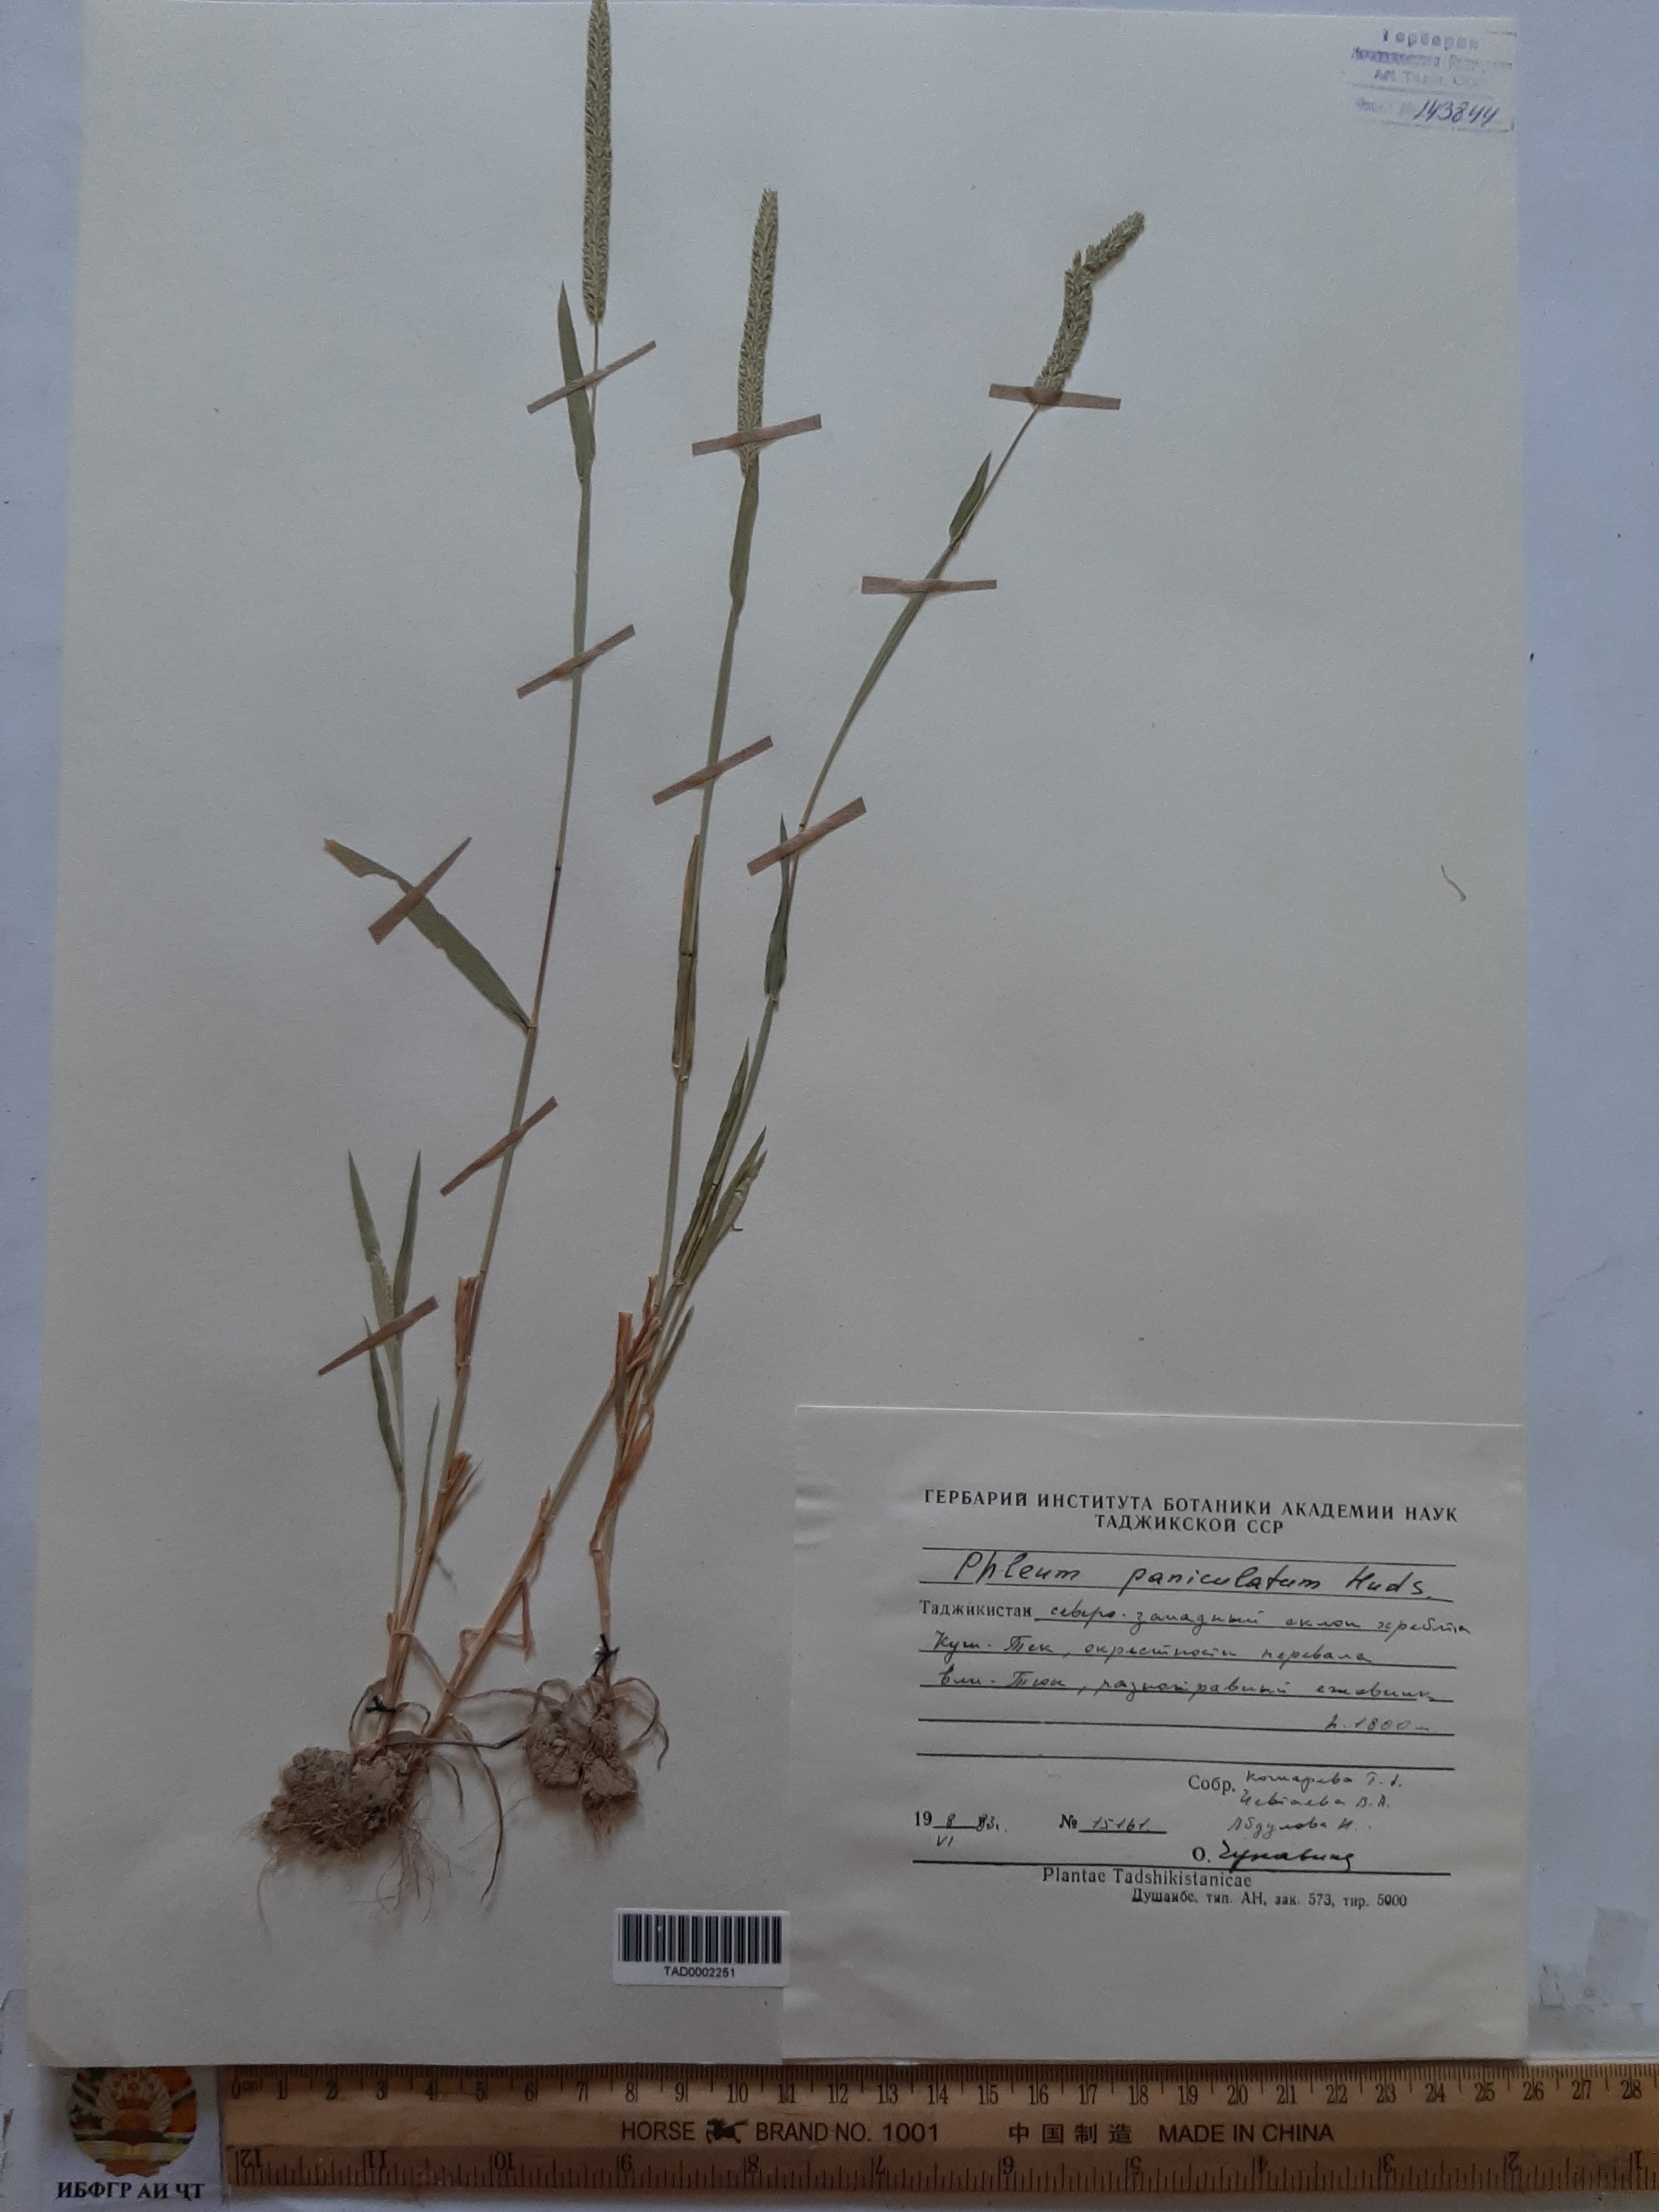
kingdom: Plantae
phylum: Tracheophyta
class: Liliopsida
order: Poales
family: Poaceae
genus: Phleum
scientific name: Phleum paniculatum
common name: British timothy
